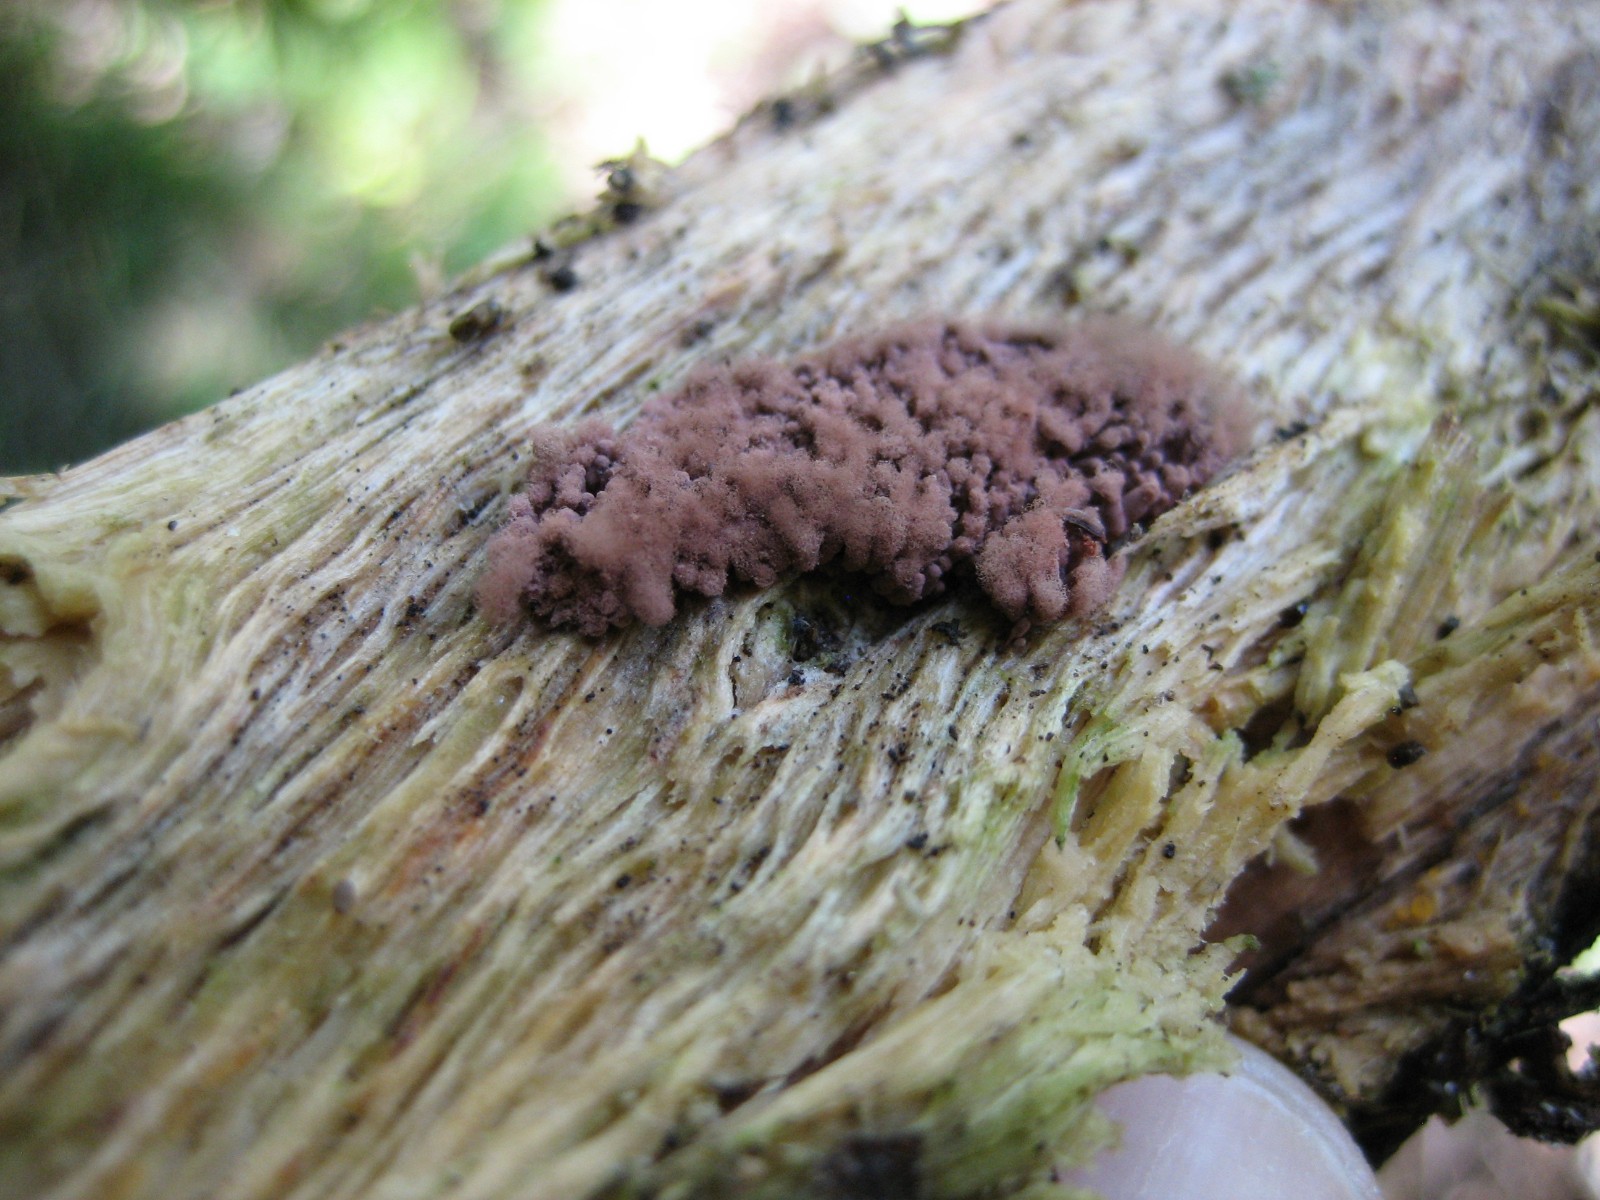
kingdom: Protozoa
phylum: Mycetozoa
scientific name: Mycetozoa
